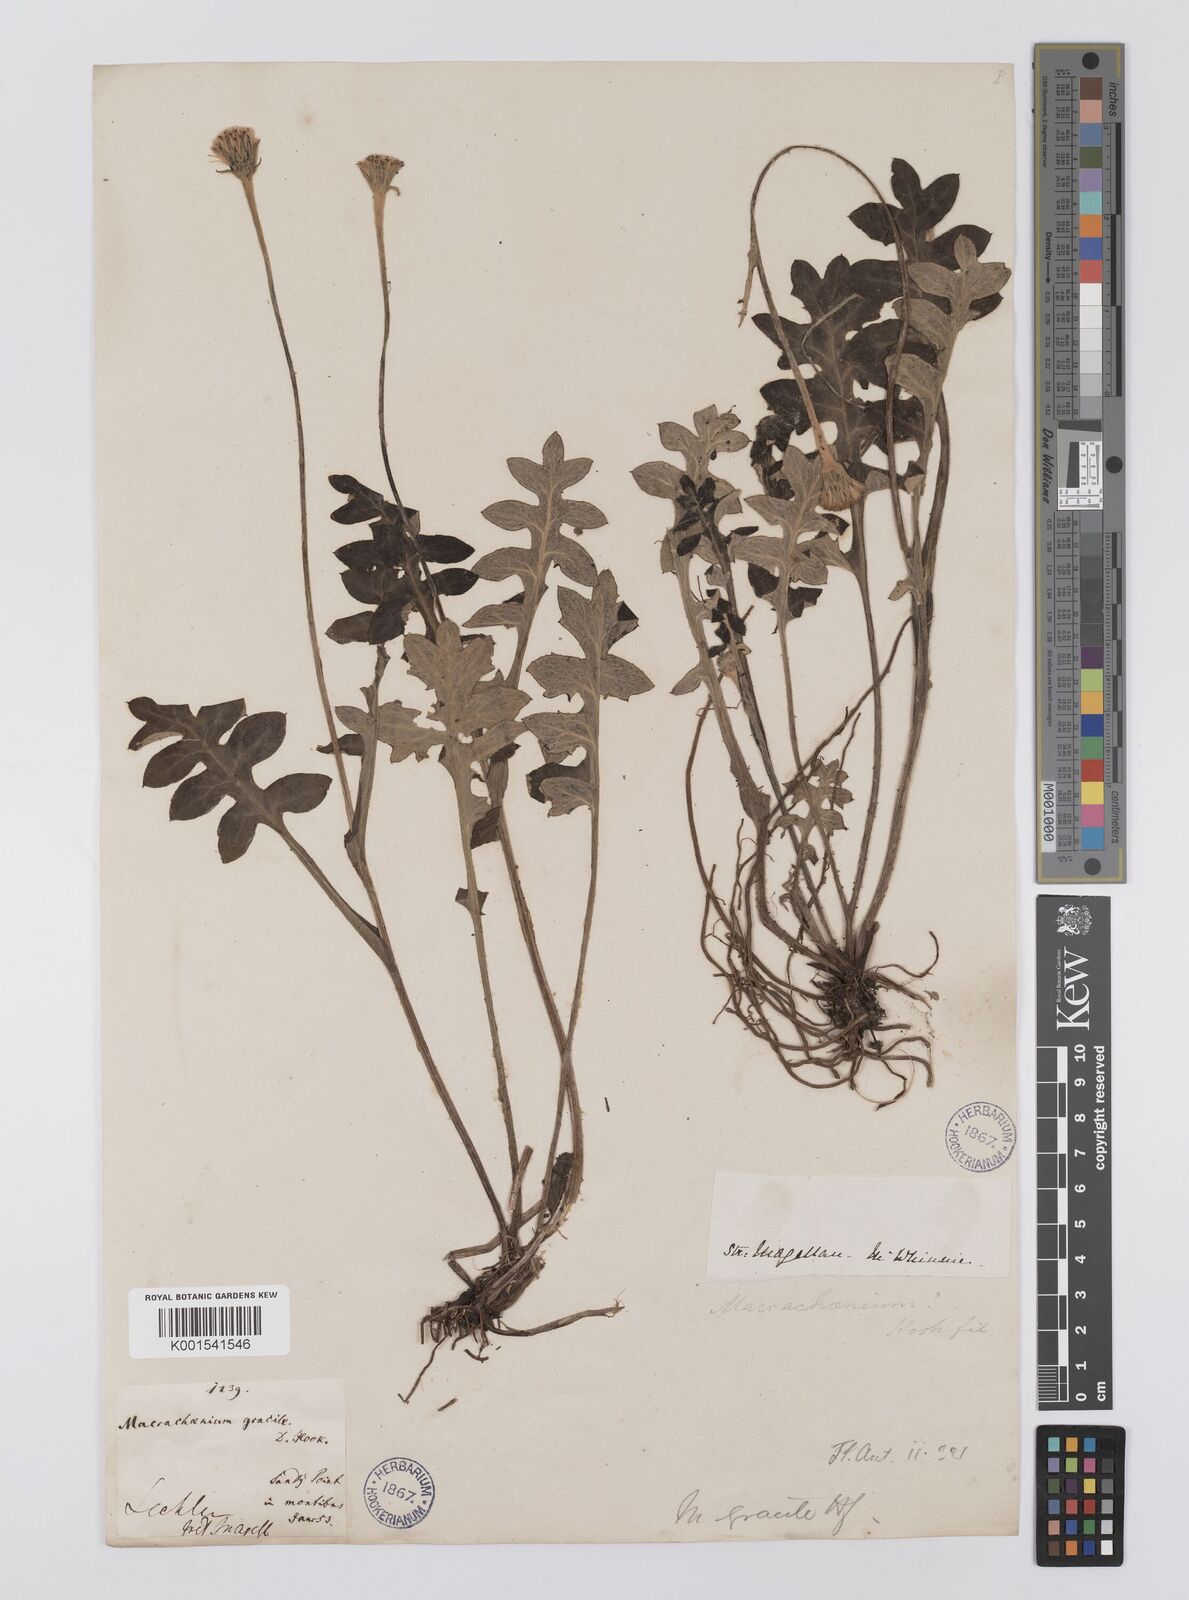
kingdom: Plantae
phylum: Tracheophyta
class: Magnoliopsida
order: Asterales
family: Asteraceae
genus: Macrachaenium
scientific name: Macrachaenium gracile
